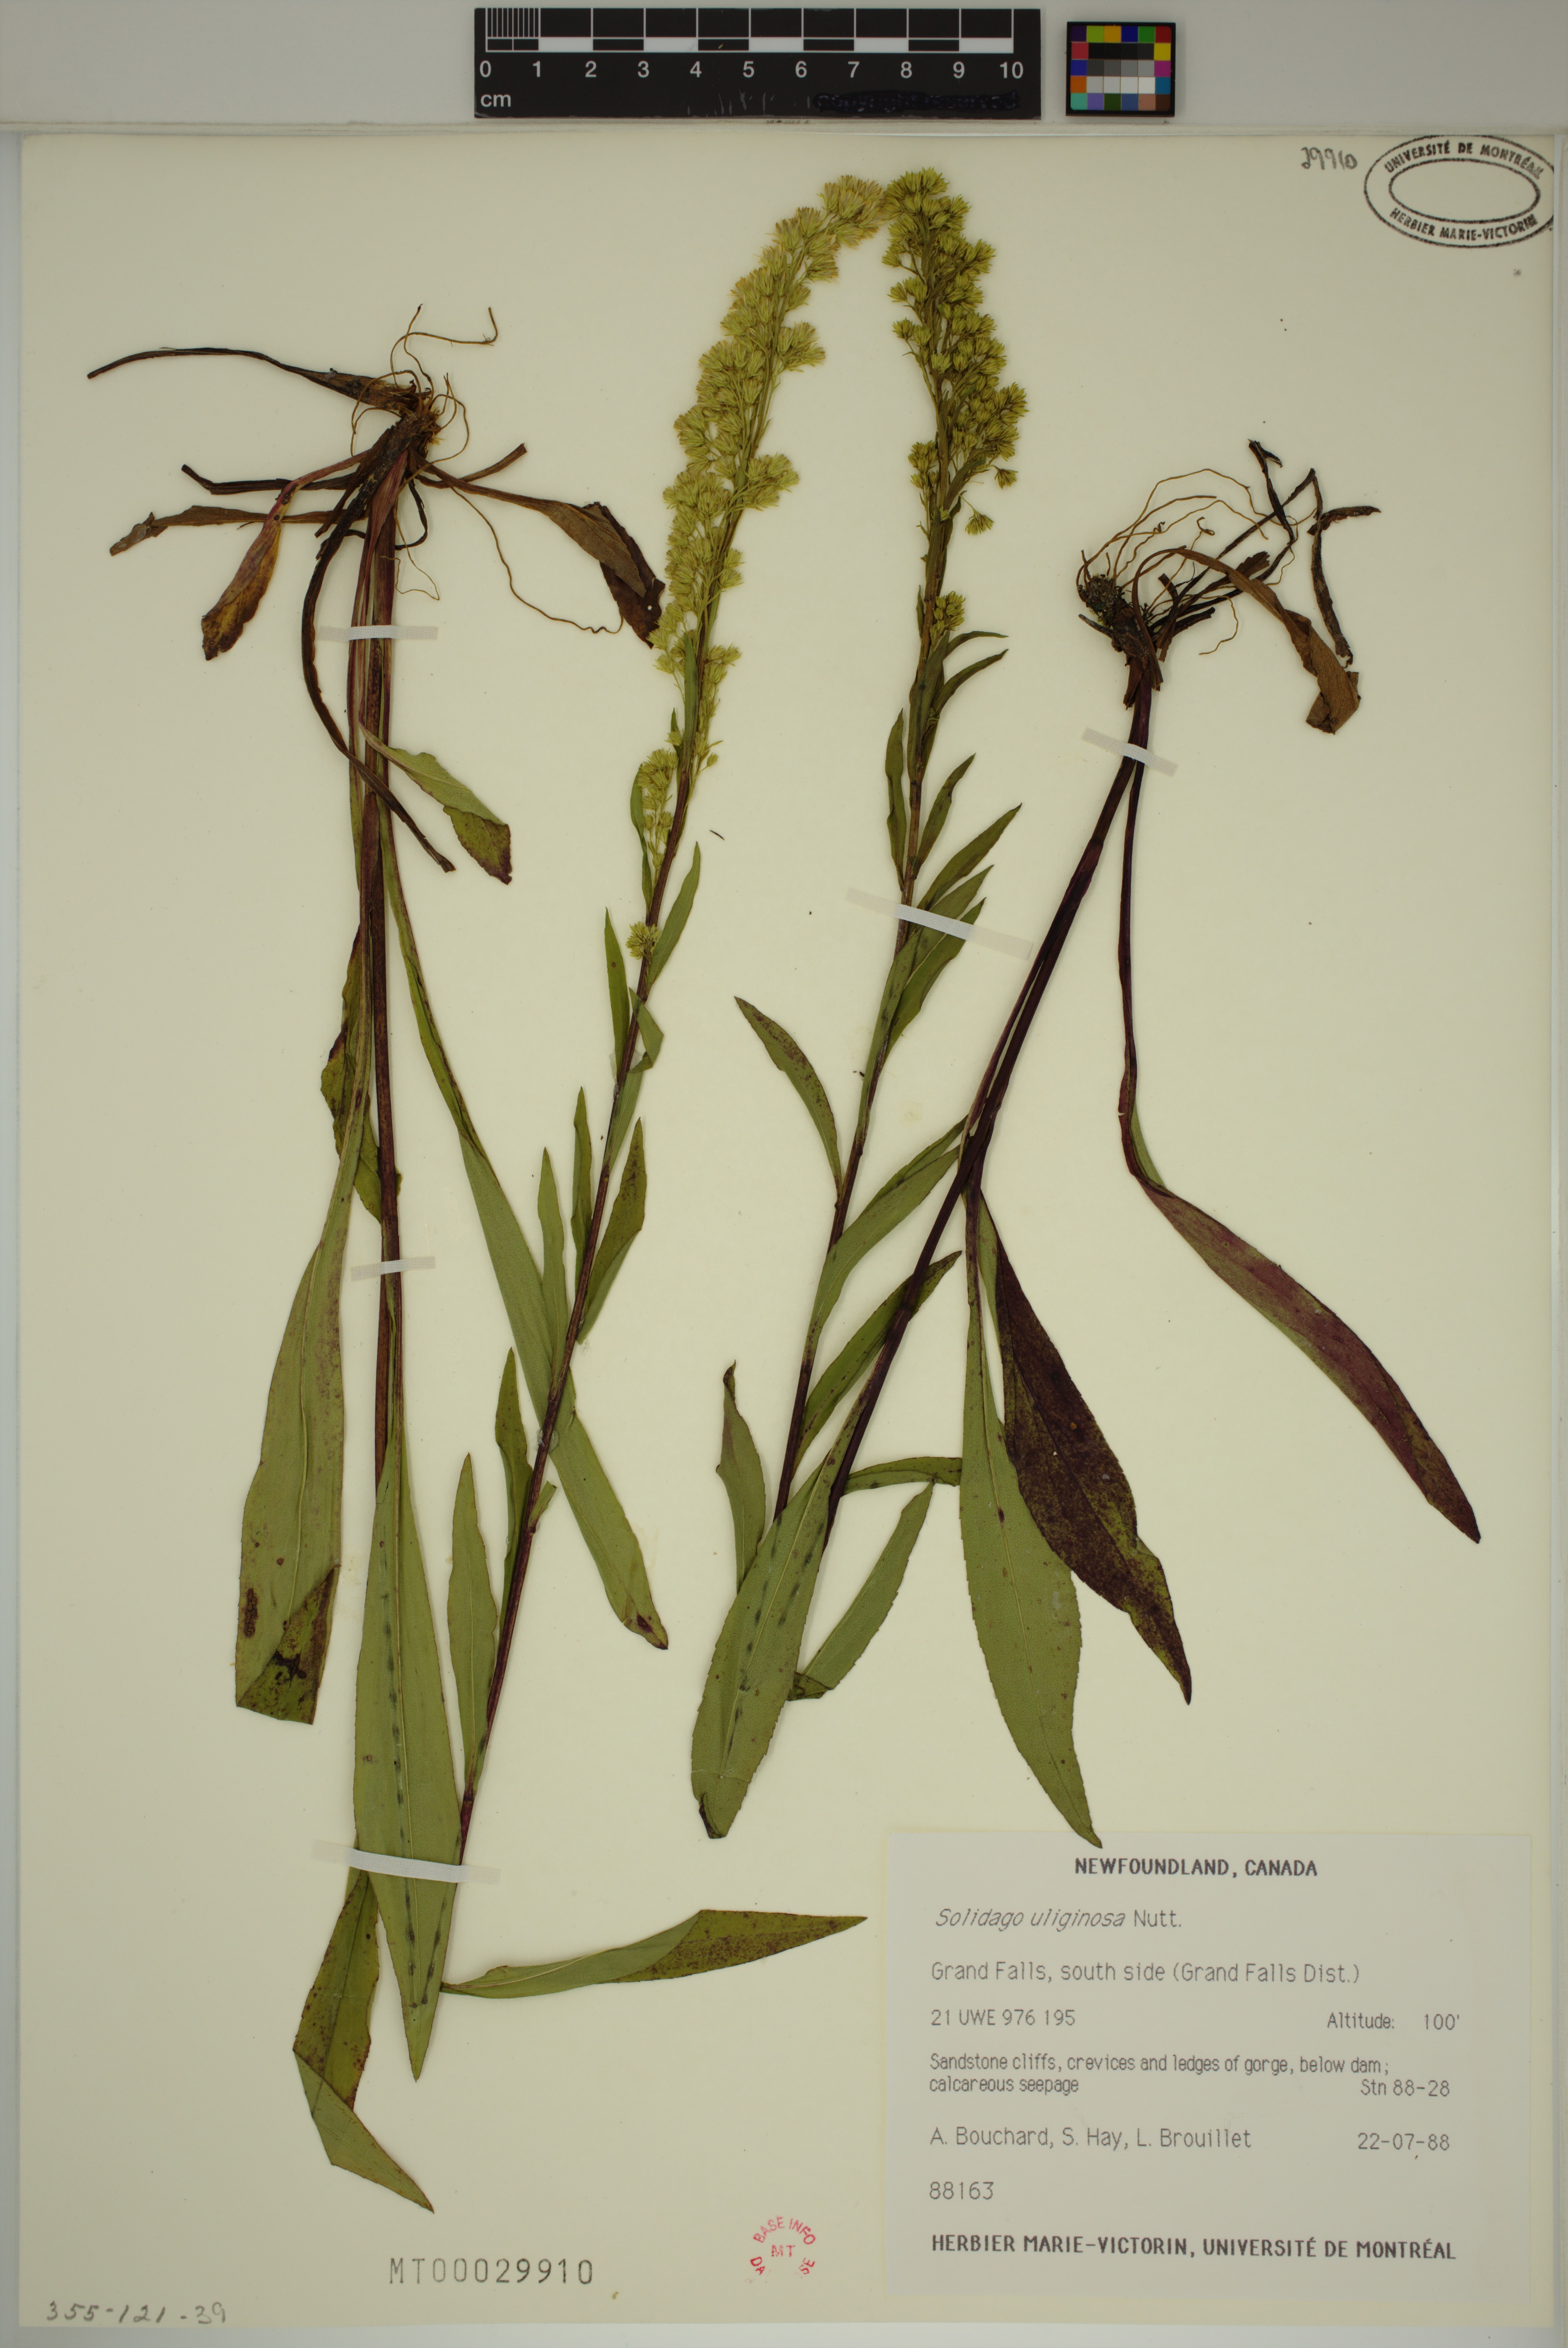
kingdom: Plantae
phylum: Tracheophyta
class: Magnoliopsida
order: Asterales
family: Asteraceae
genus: Solidago
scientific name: Solidago uliginosa
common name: Bog goldenrod
